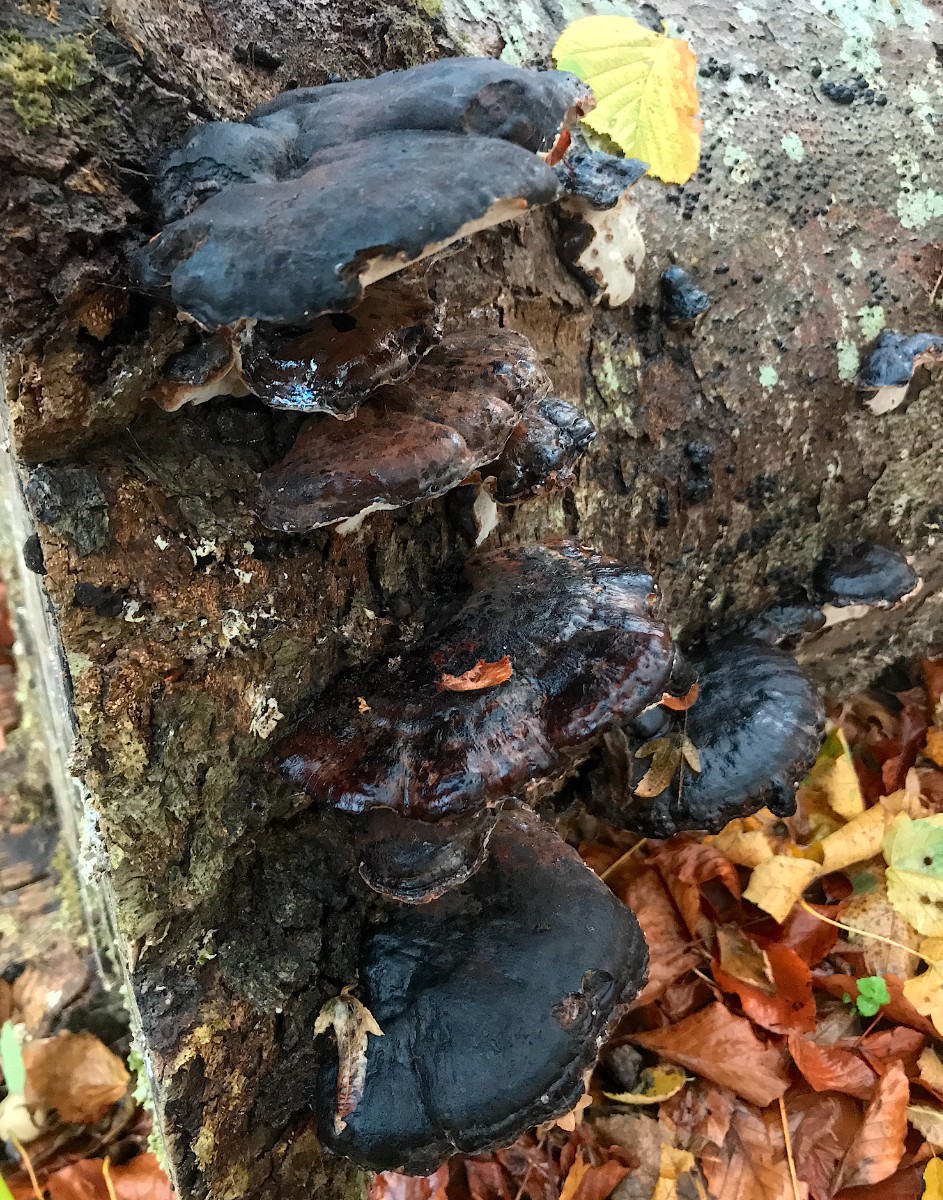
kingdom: Fungi
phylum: Basidiomycota
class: Agaricomycetes
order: Polyporales
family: Ischnodermataceae
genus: Ischnoderma
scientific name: Ischnoderma resinosum
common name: løv-tjæreporesvamp
